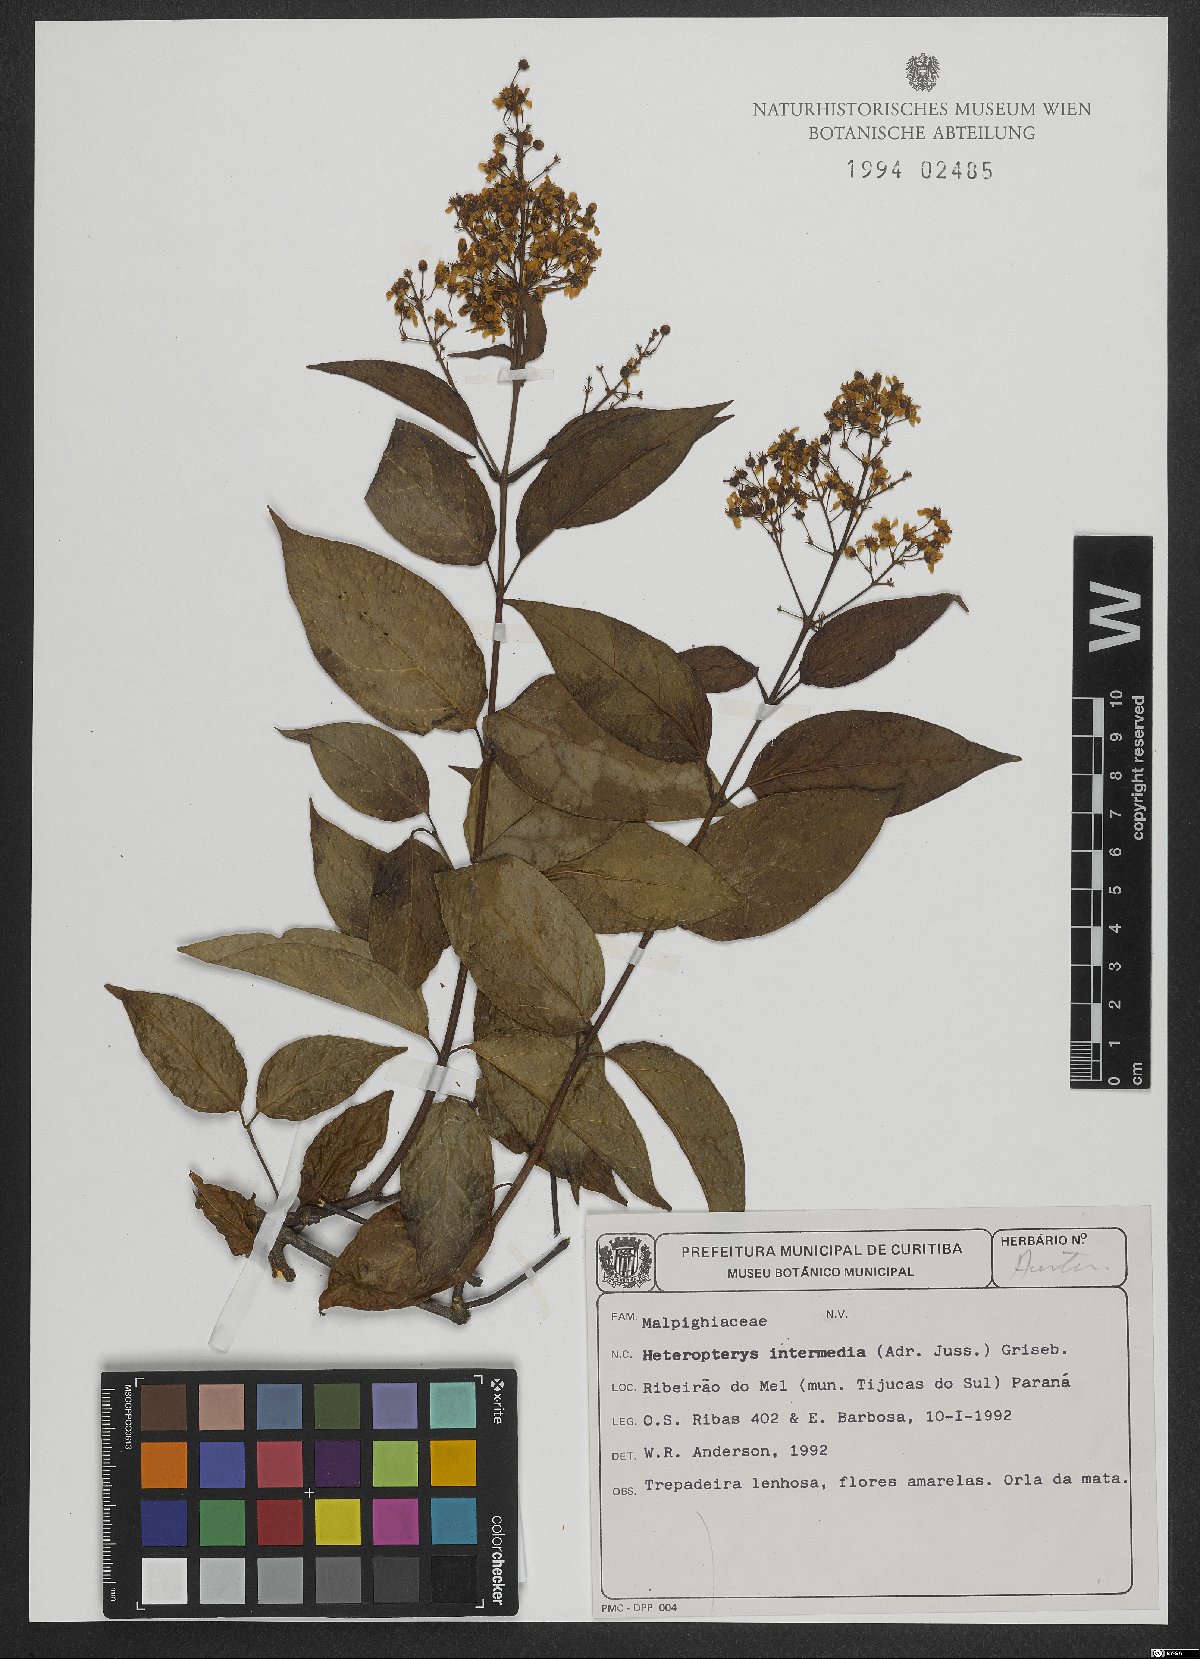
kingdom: Plantae
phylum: Tracheophyta
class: Magnoliopsida
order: Malpighiales
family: Malpighiaceae
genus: Heteropterys
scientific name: Heteropterys intermedia
